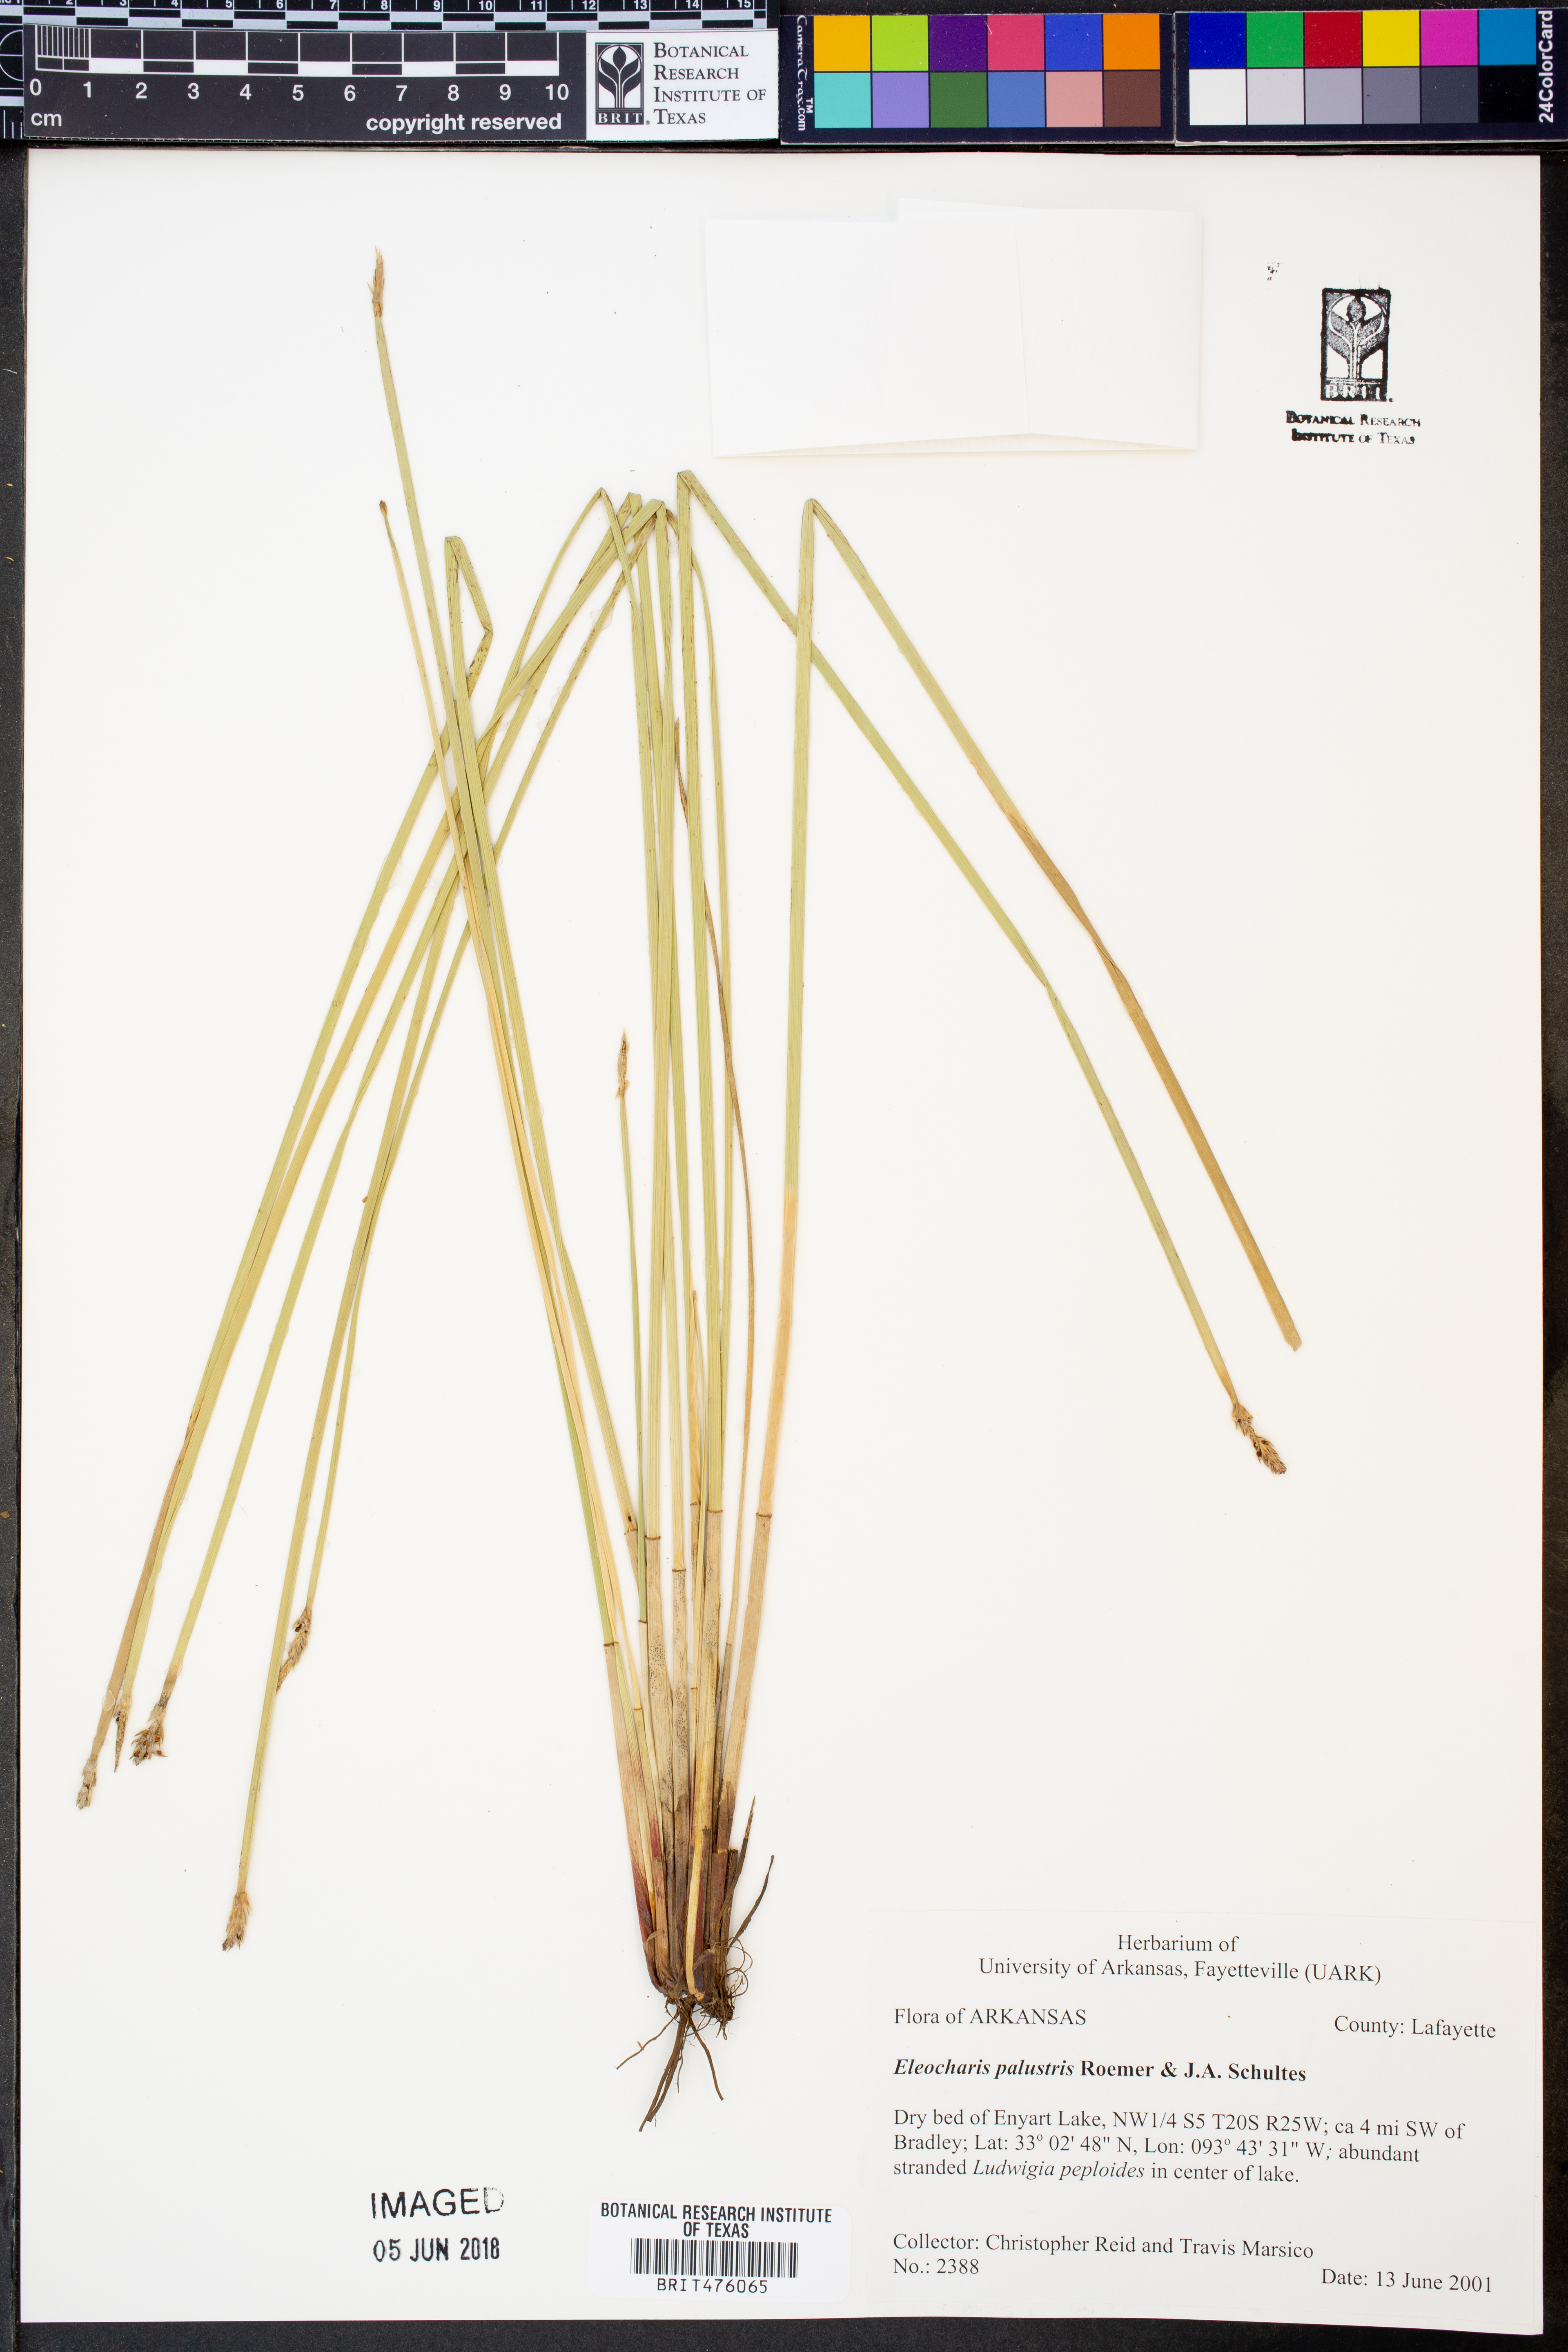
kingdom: Plantae
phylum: Tracheophyta
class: Liliopsida
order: Poales
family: Cyperaceae
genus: Eleocharis
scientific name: Eleocharis palustris
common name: Common spike-rush
